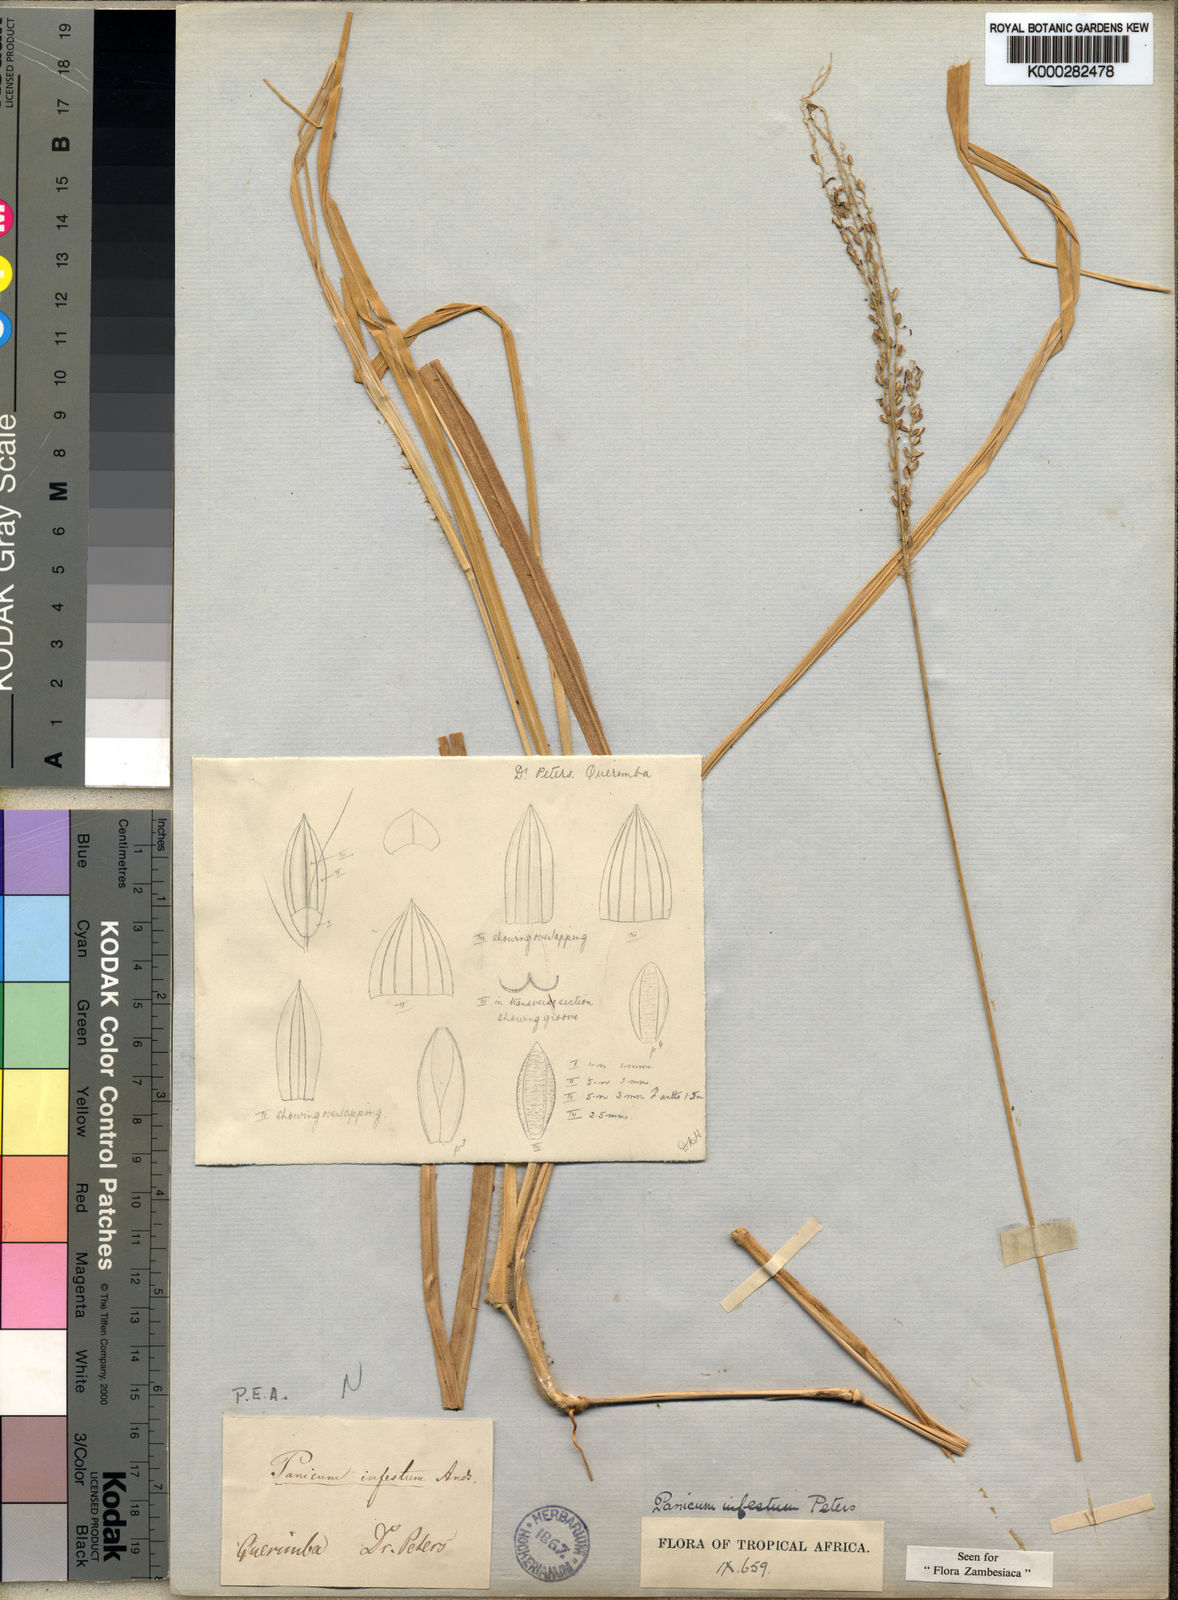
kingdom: Plantae
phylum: Tracheophyta
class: Liliopsida
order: Poales
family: Poaceae
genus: Panicum
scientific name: Panicum
